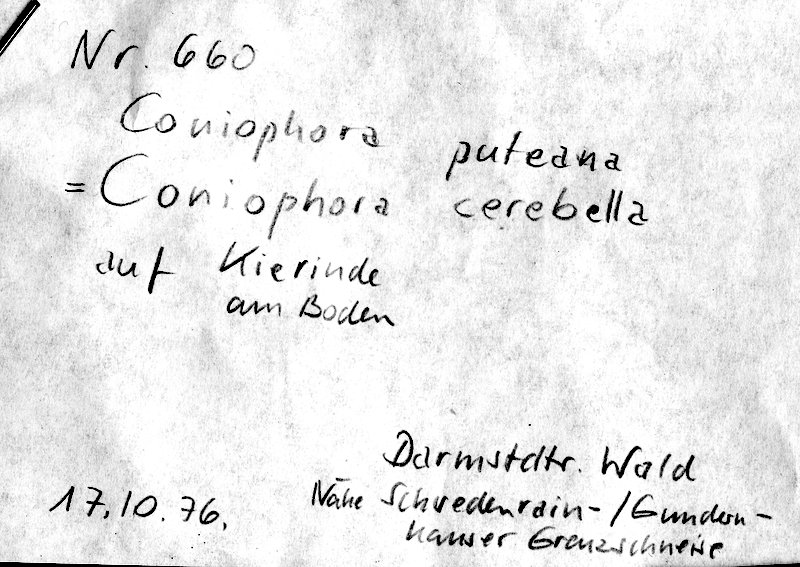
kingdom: Fungi
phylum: Basidiomycota
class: Agaricomycetes
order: Boletales
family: Coniophoraceae
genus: Coniophora
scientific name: Coniophora puteana
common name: Cellar fungus
